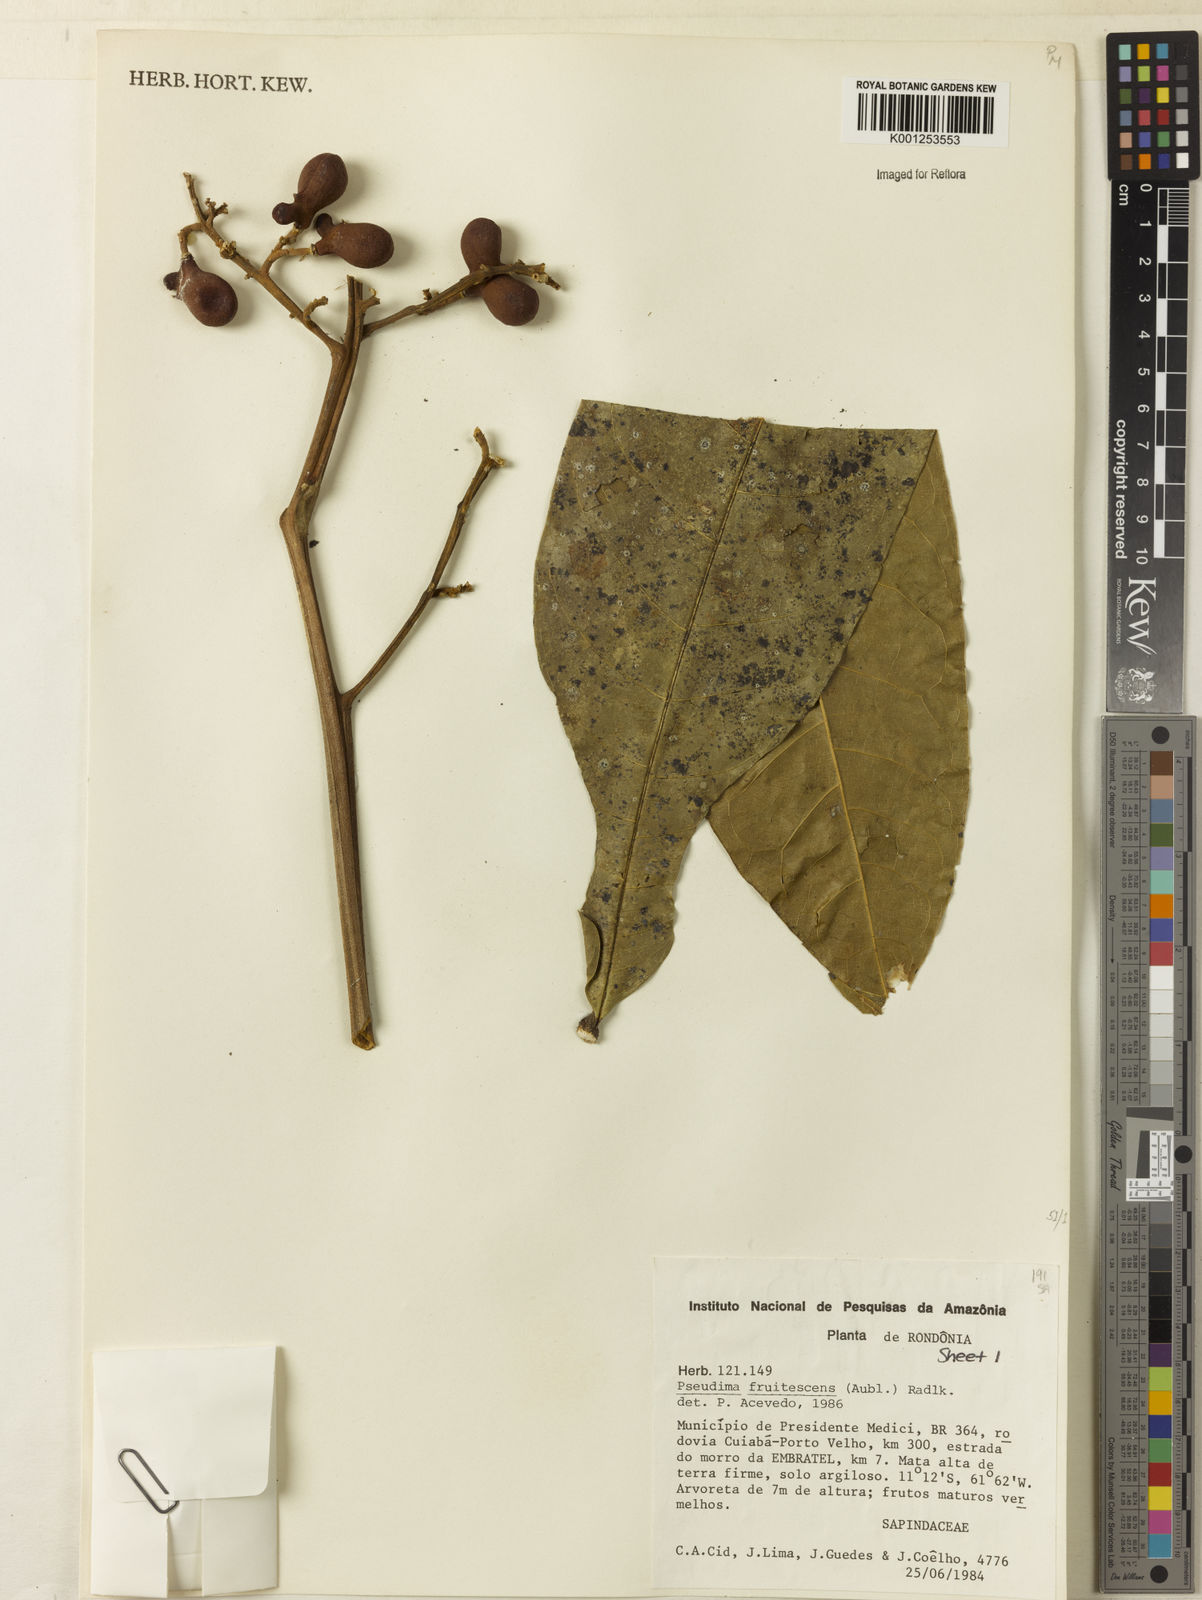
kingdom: Plantae
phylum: Tracheophyta
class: Magnoliopsida
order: Sapindales
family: Sapindaceae
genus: Pseudima
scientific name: Pseudima frutescens
